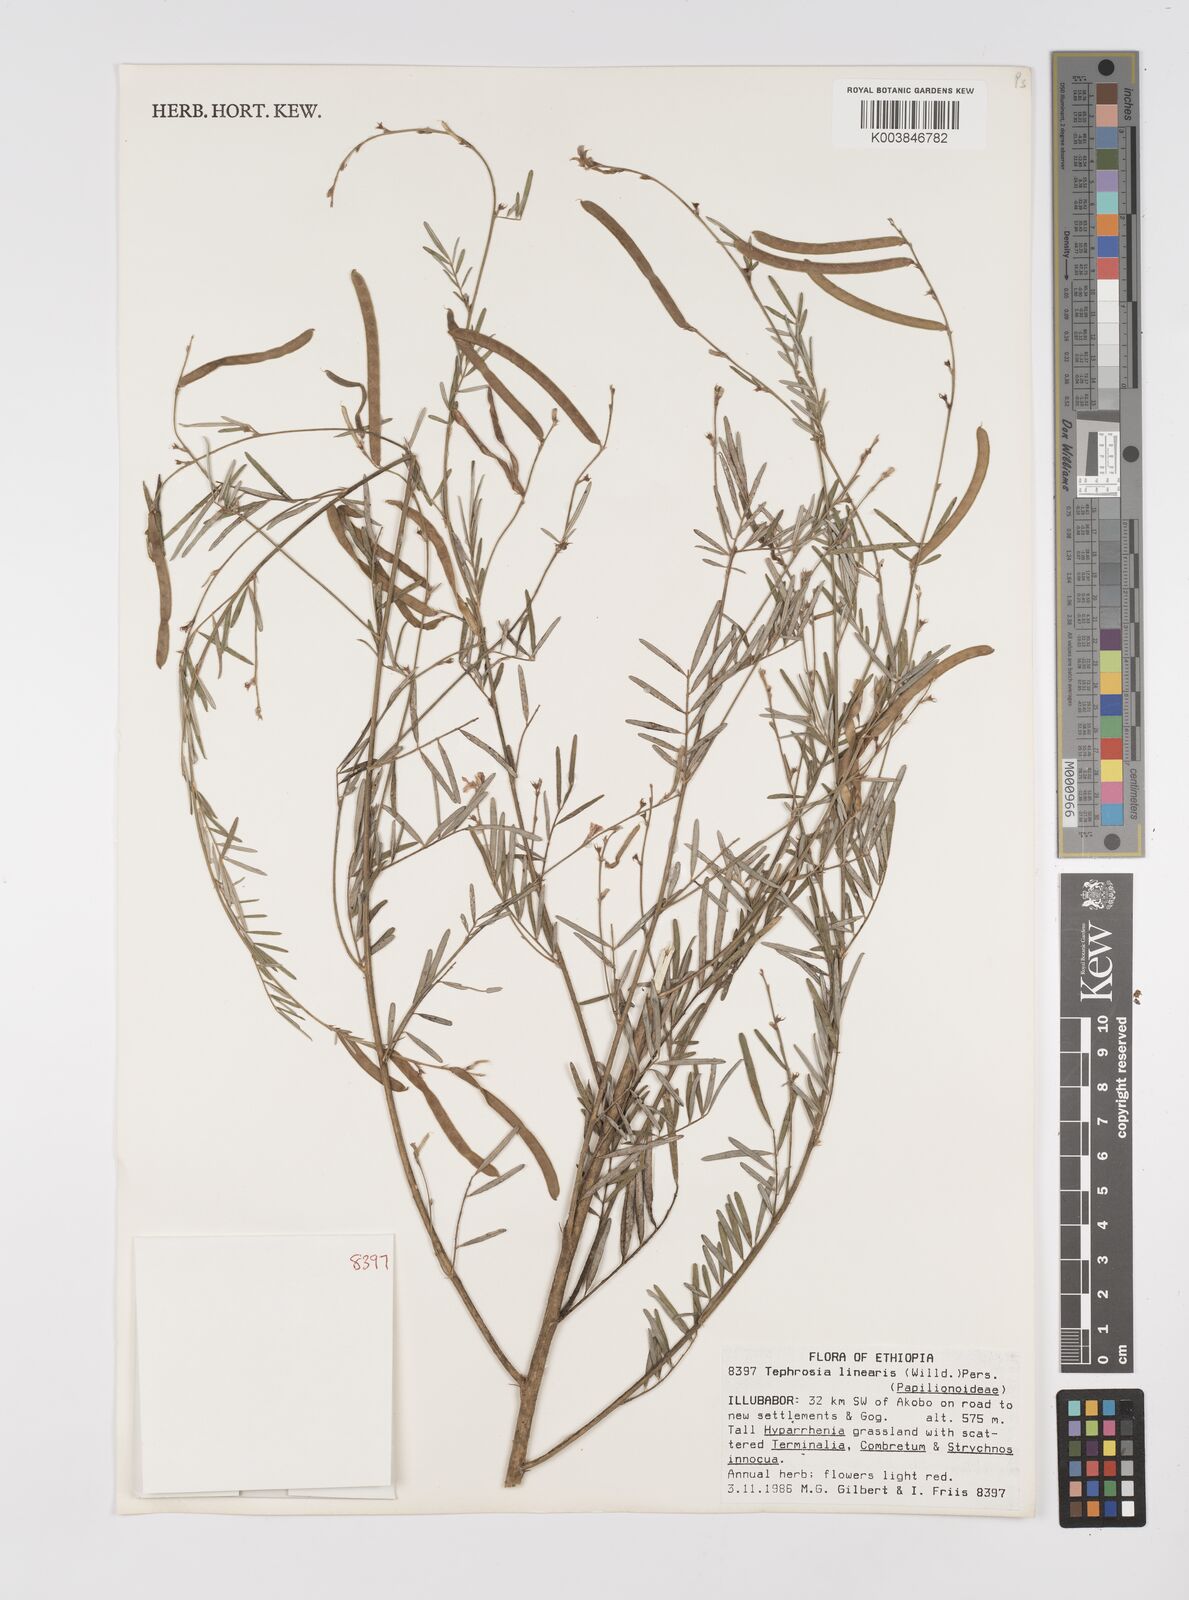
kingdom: Plantae
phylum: Tracheophyta
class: Magnoliopsida
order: Fabales
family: Fabaceae
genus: Tephrosia
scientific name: Tephrosia linearis
